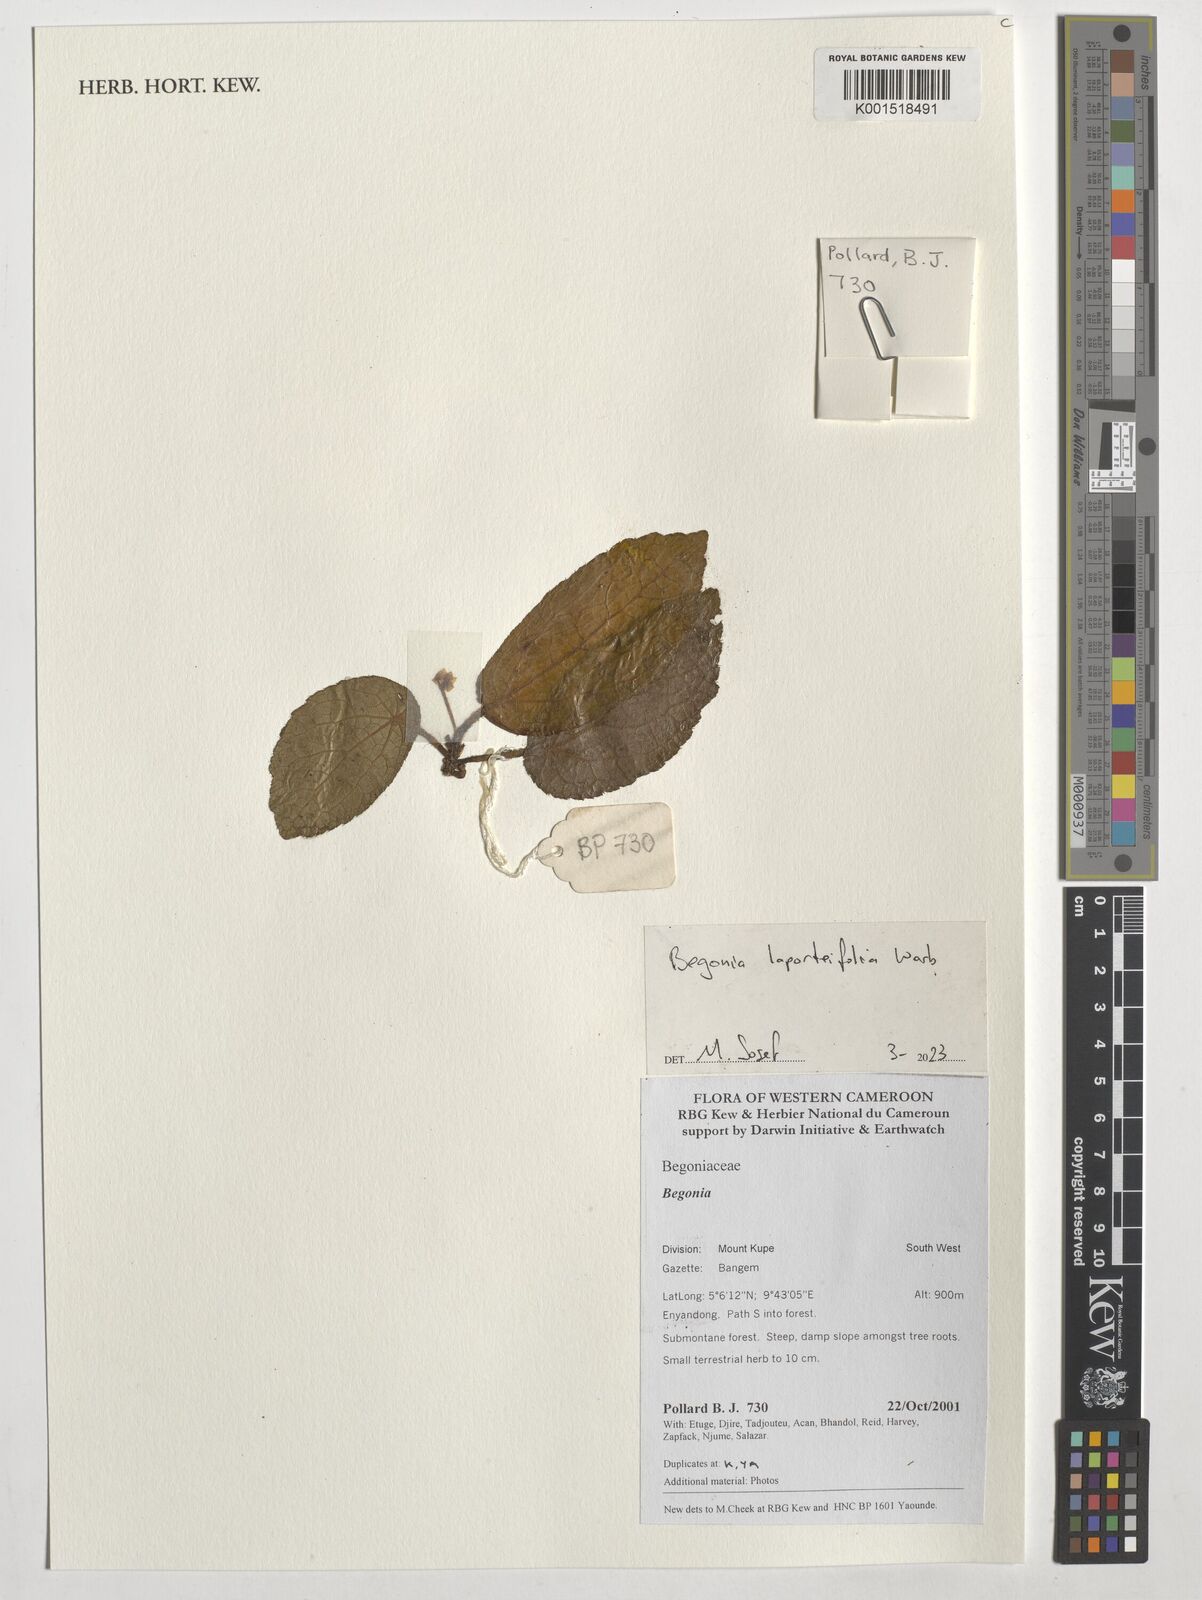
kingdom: Plantae
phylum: Tracheophyta
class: Magnoliopsida
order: Cucurbitales
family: Begoniaceae
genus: Begonia
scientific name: Begonia laporteifolia
